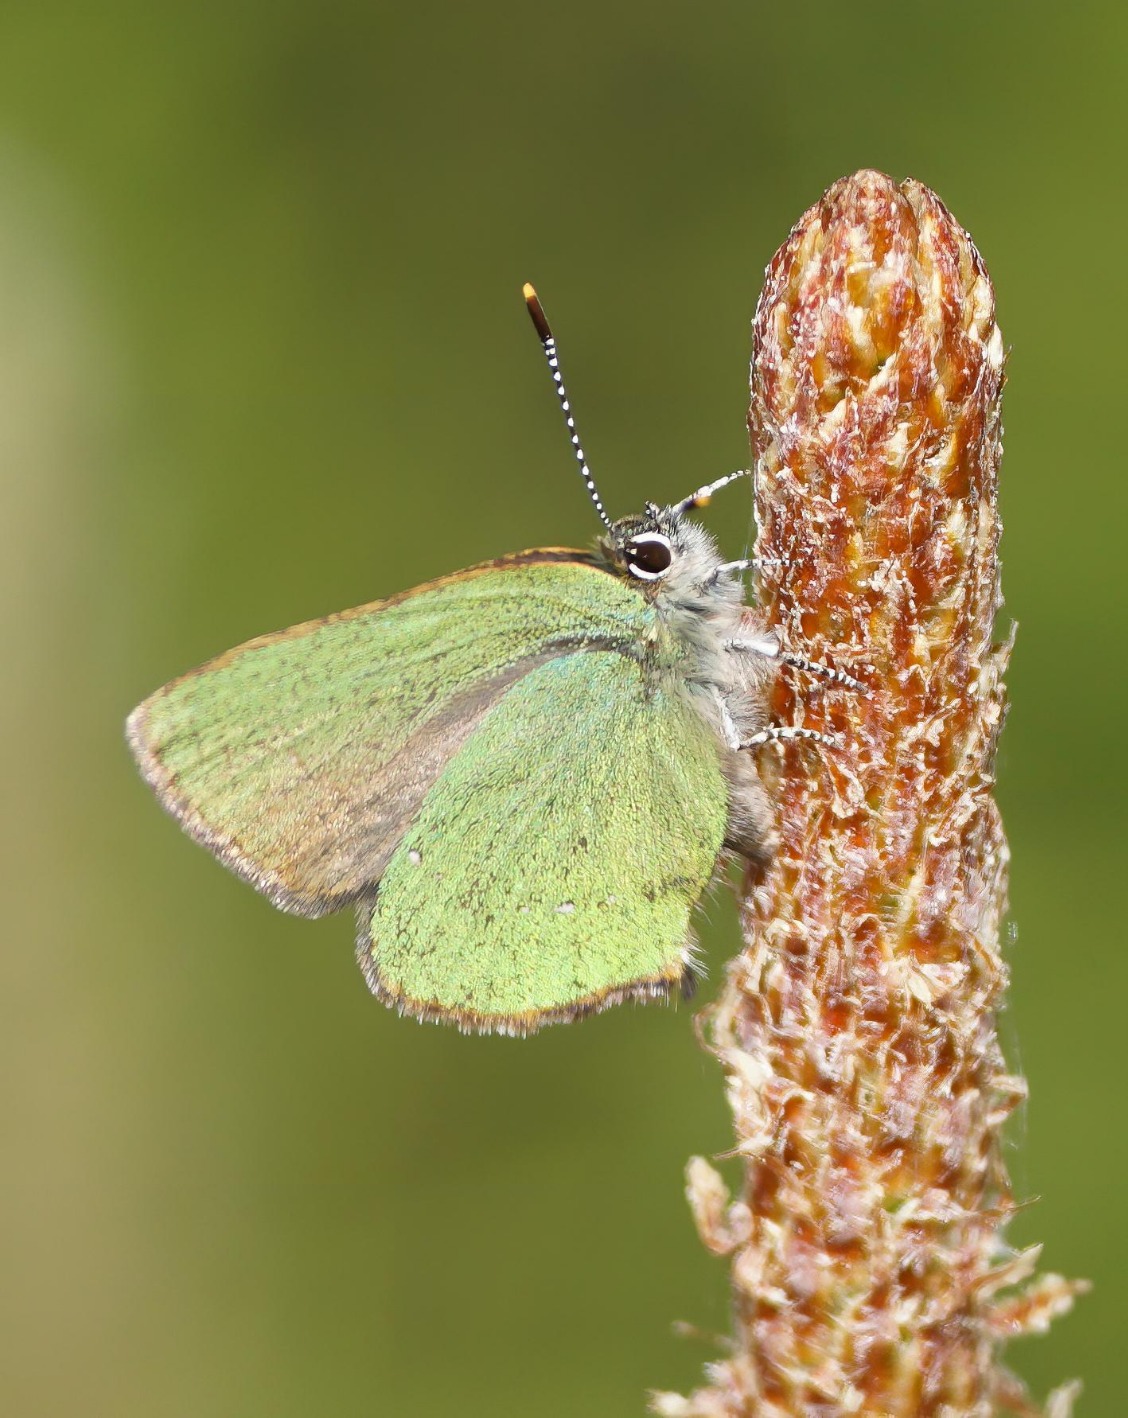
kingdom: Animalia
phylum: Arthropoda
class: Insecta
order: Lepidoptera
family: Lycaenidae
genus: Callophrys
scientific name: Callophrys rubi
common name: Grøn busksommerfugl
